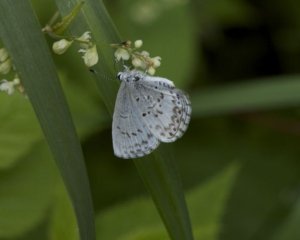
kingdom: Animalia
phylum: Arthropoda
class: Insecta
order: Lepidoptera
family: Lycaenidae
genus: Cyaniris
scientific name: Cyaniris neglecta
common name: Summer Azure
